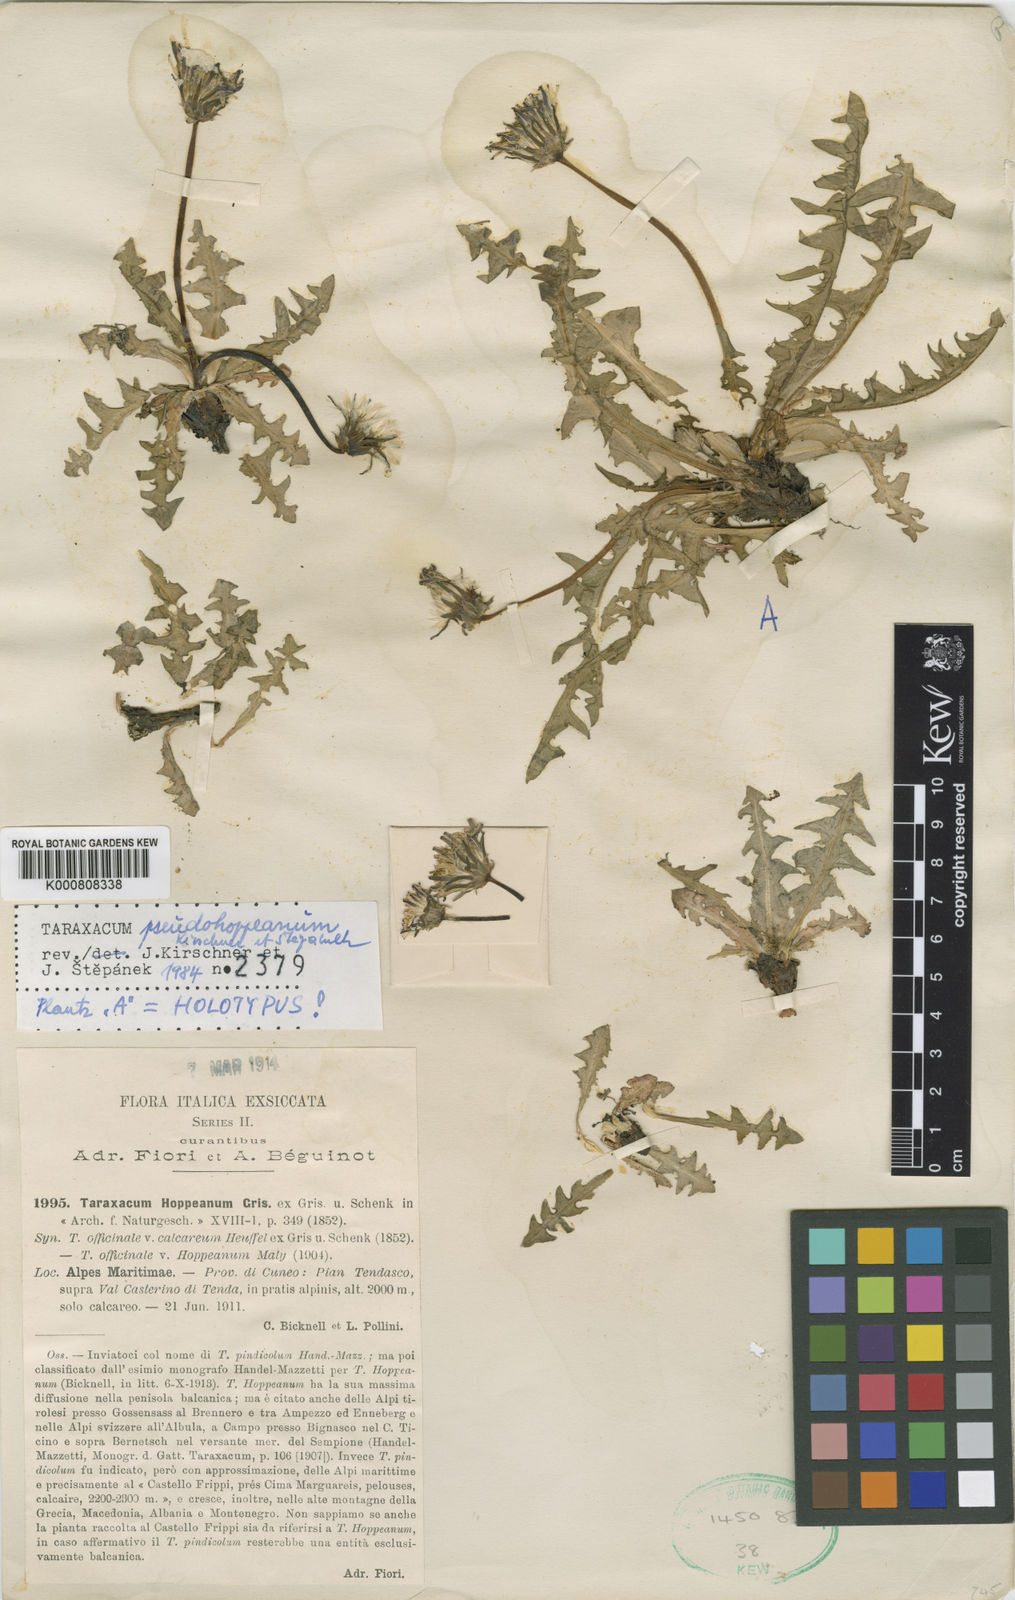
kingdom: Plantae
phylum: Tracheophyta
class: Magnoliopsida
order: Asterales
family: Asteraceae
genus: Taraxacum
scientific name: Taraxacum
